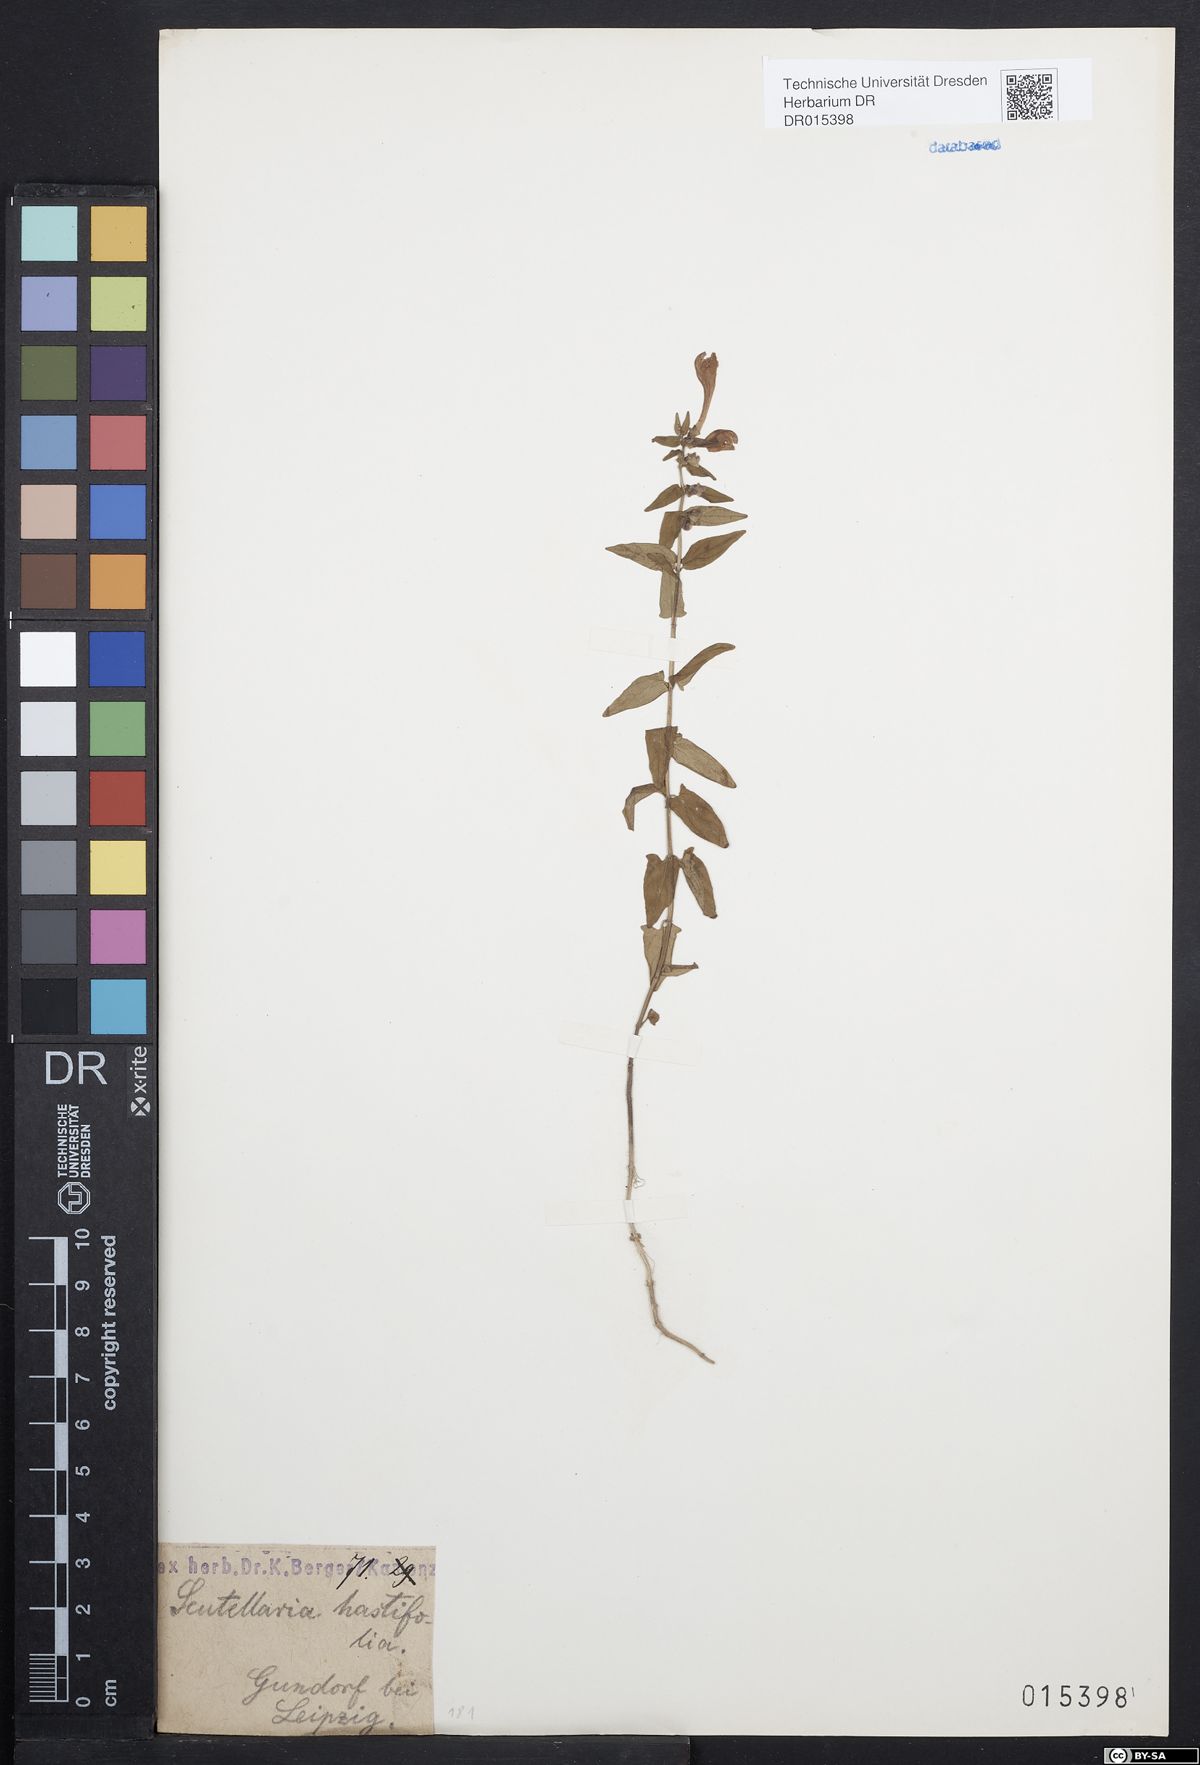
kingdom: Plantae
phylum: Tracheophyta
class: Magnoliopsida
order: Lamiales
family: Lamiaceae
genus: Scutellaria
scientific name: Scutellaria hastifolia
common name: Norfolk skullcap
